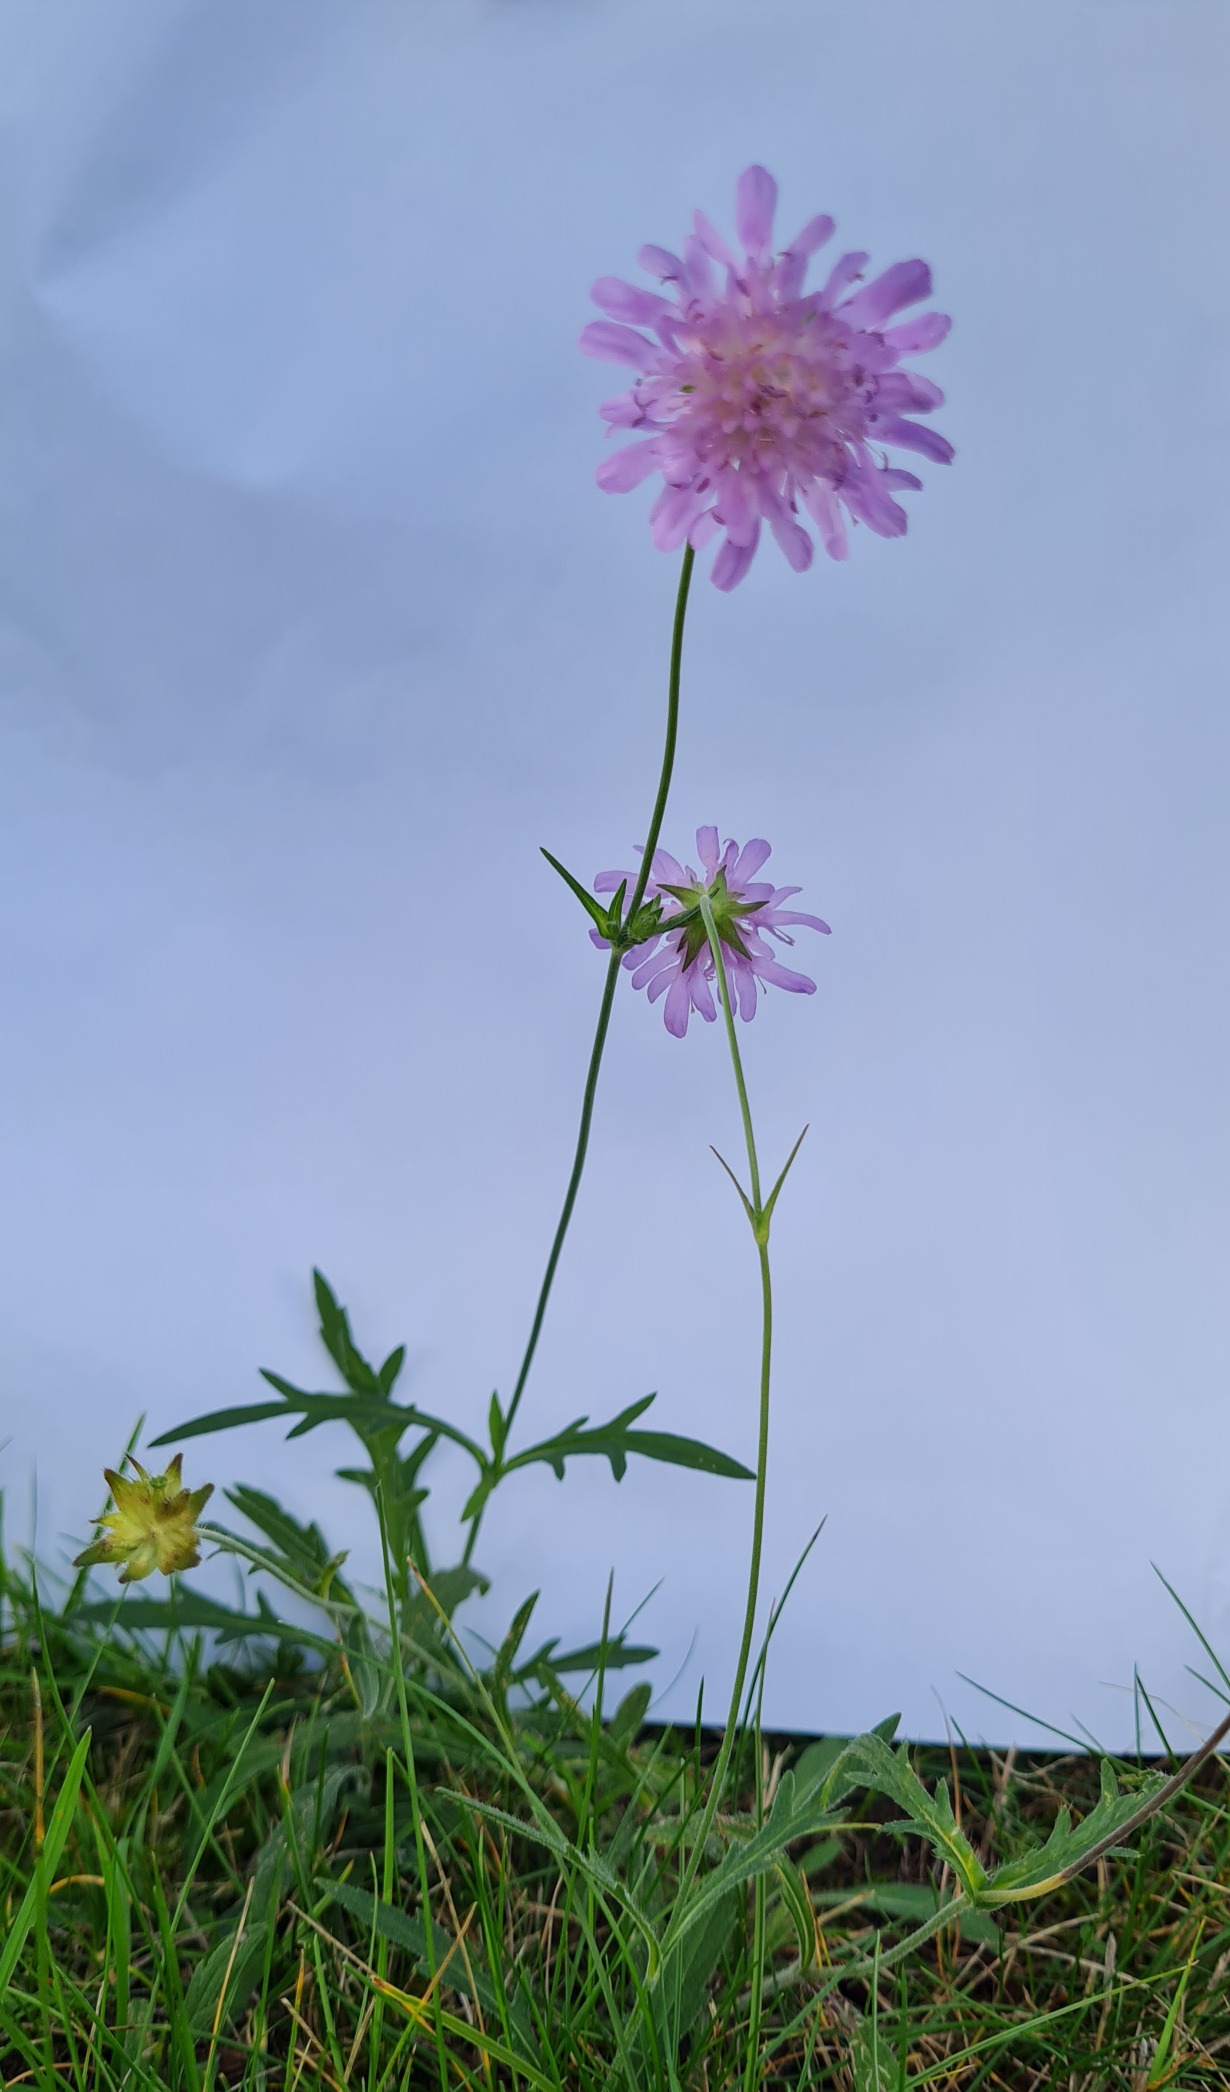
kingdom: Plantae
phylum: Tracheophyta
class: Magnoliopsida
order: Dipsacales
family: Caprifoliaceae
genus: Knautia
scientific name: Knautia arvensis
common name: Blåhat
